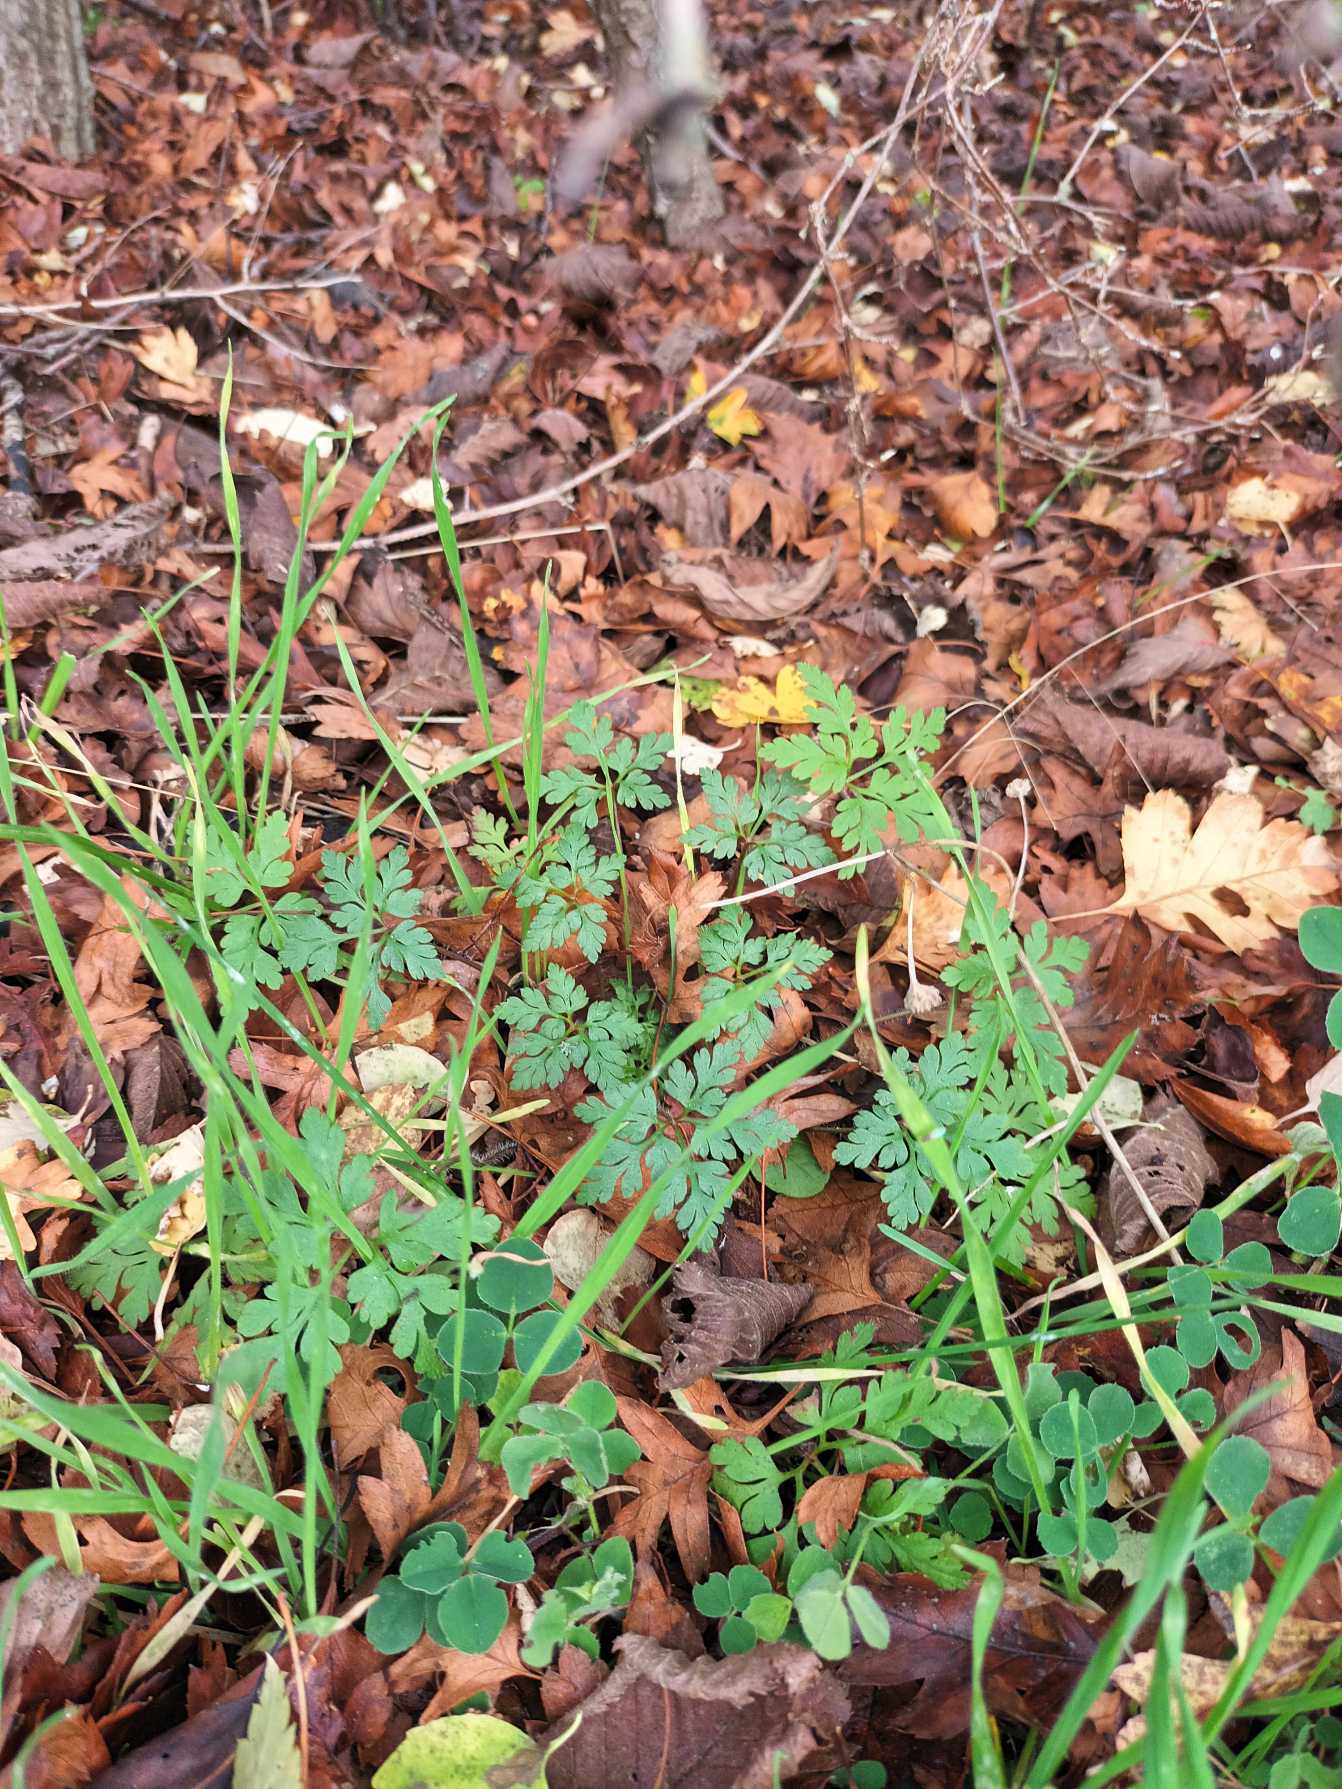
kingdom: Plantae
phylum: Tracheophyta
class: Magnoliopsida
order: Geraniales
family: Geraniaceae
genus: Geranium
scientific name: Geranium robertianum
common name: Stinkende storkenæb
